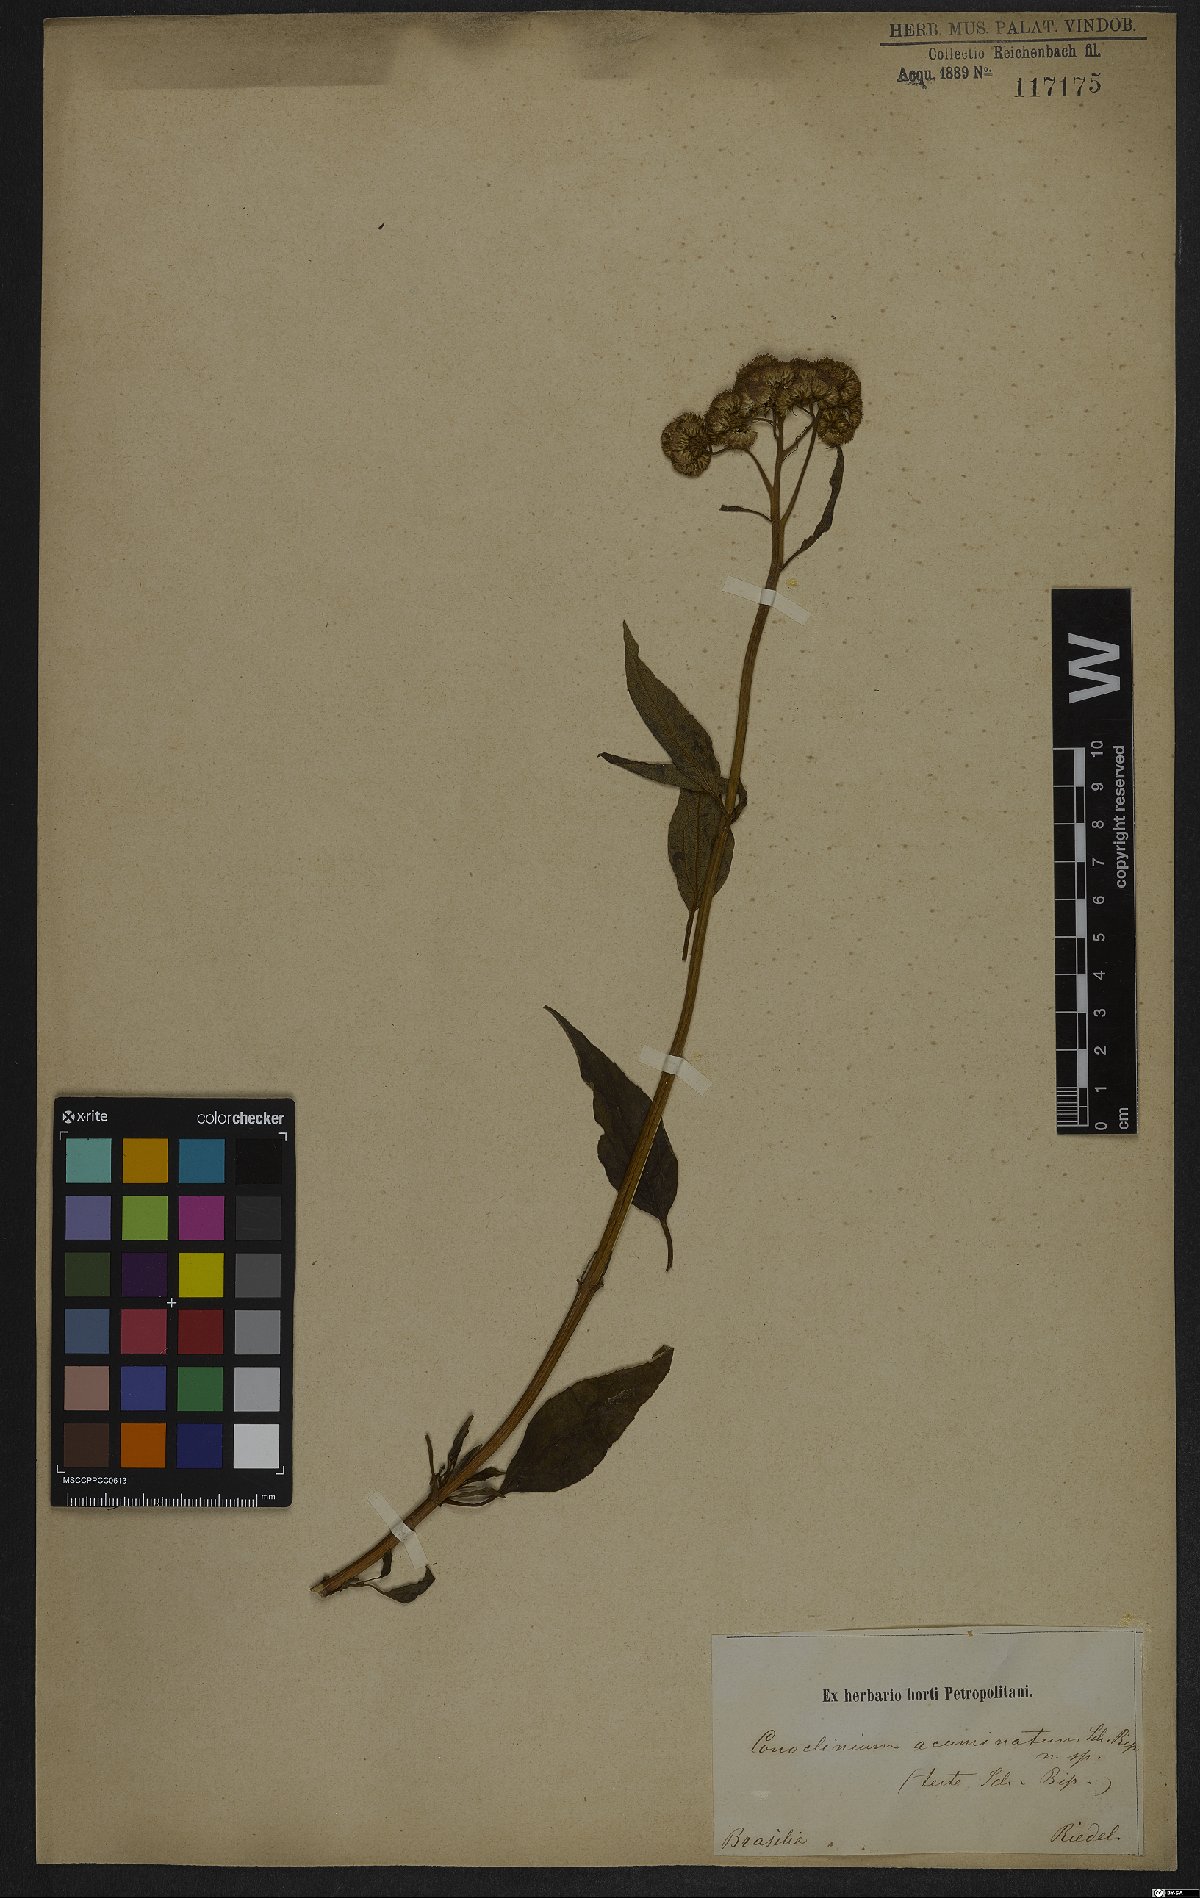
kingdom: Plantae
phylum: Tracheophyta
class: Magnoliopsida
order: Asterales
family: Asteraceae
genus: Barrosoa
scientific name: Barrosoa organensis
